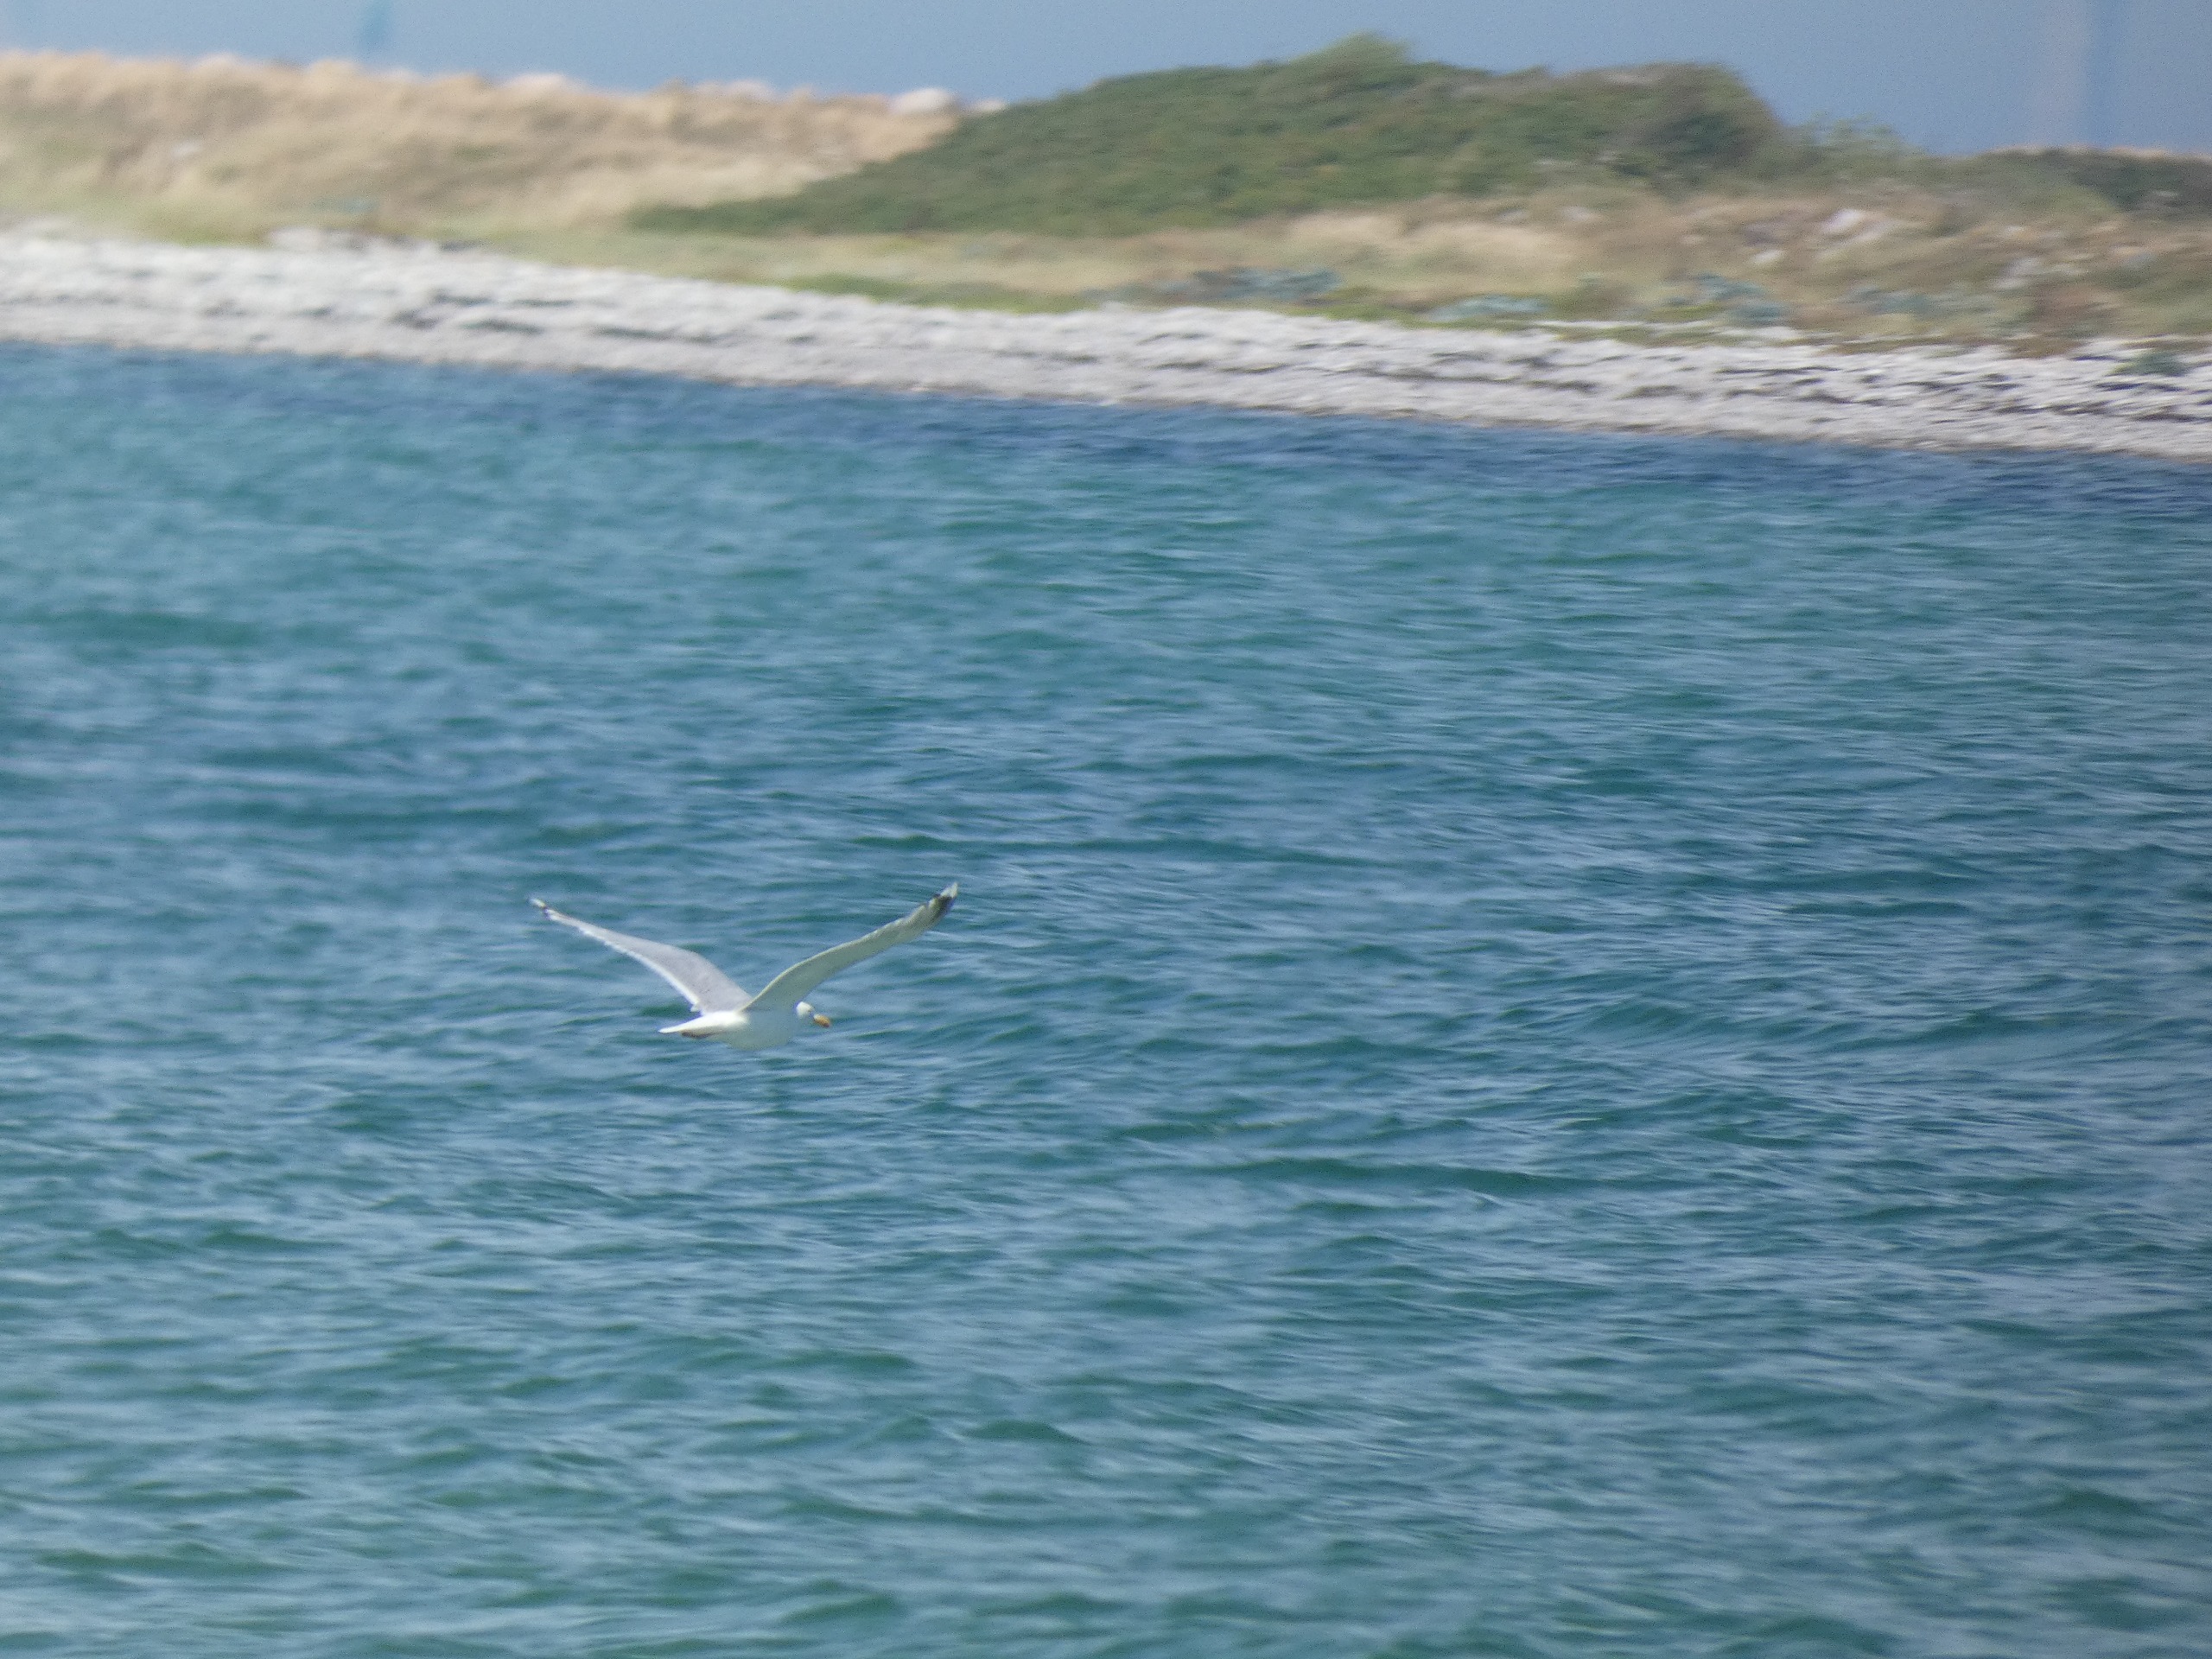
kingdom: Animalia
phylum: Chordata
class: Aves
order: Charadriiformes
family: Laridae
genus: Larus
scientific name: Larus argentatus
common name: Sølvmåge
